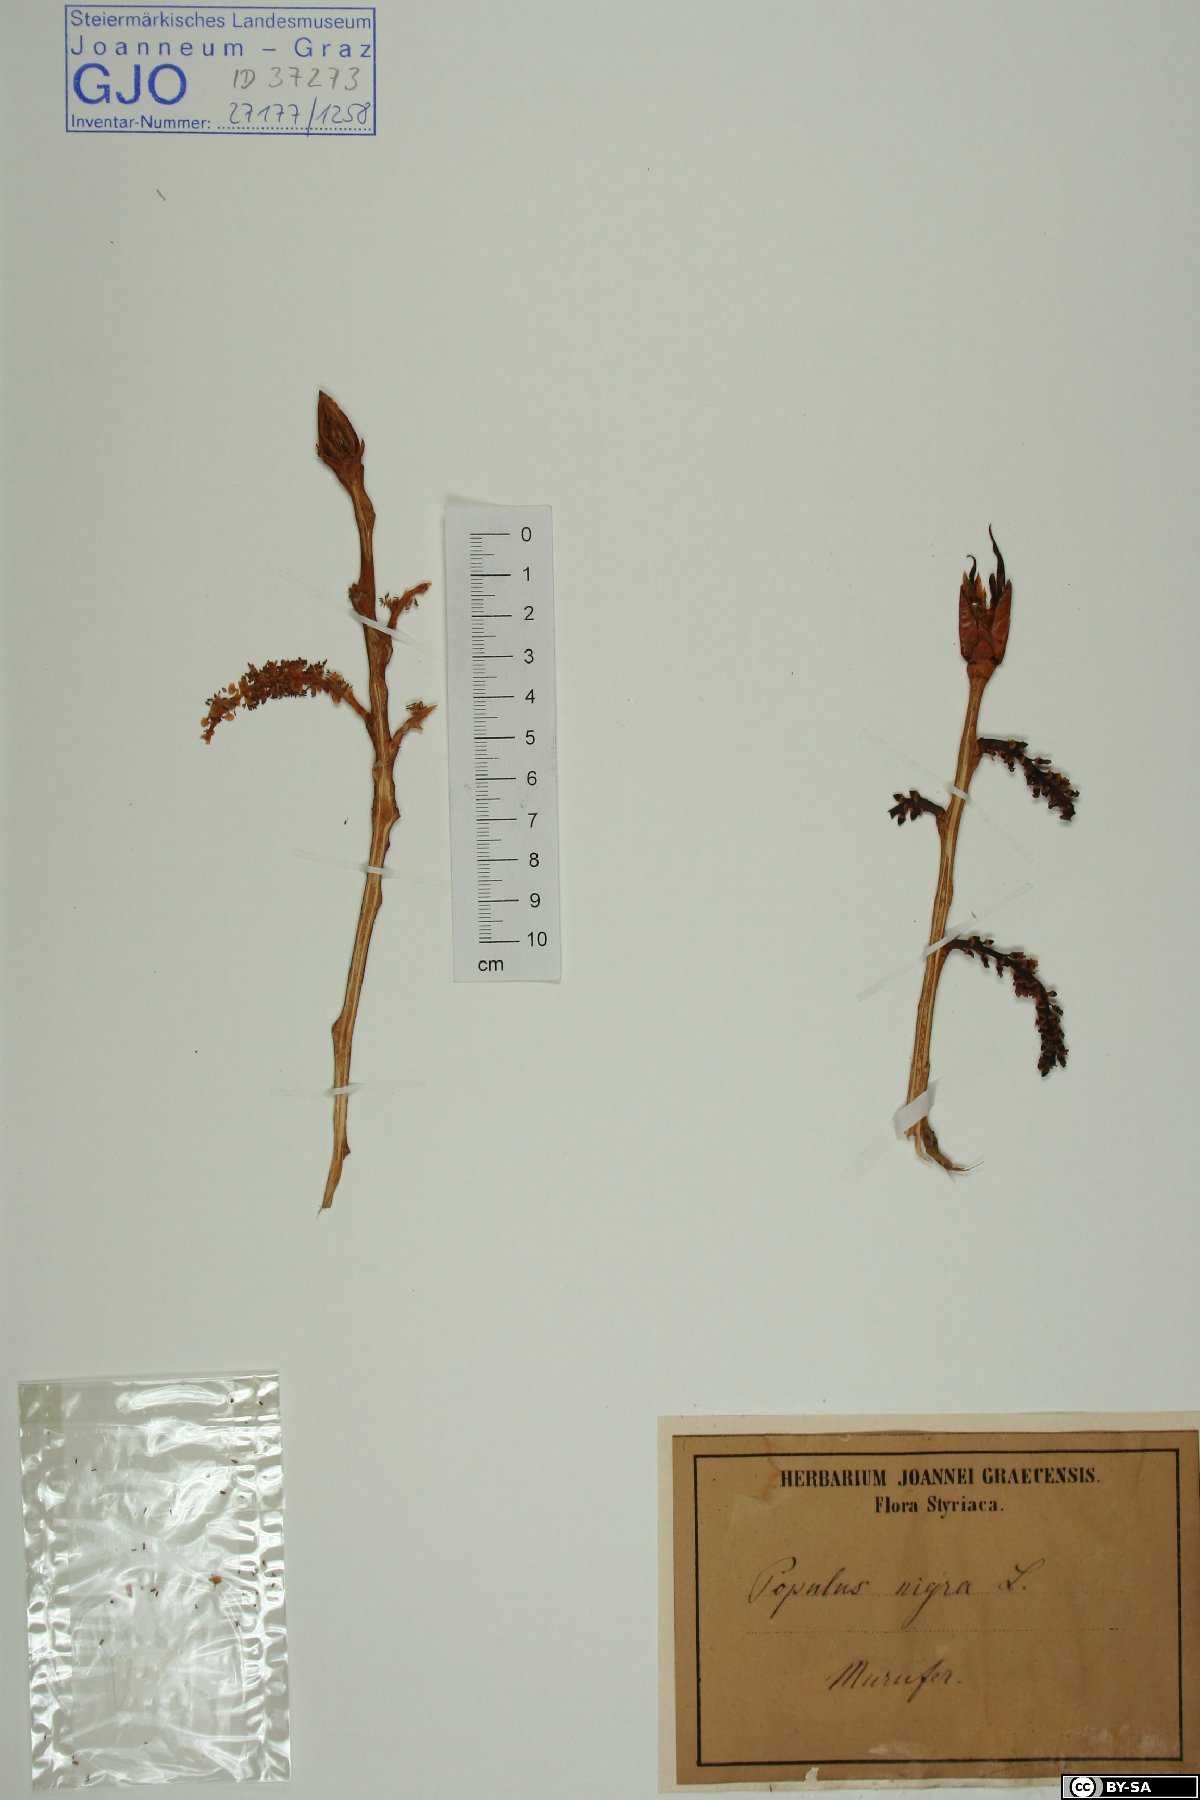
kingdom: Plantae
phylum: Tracheophyta
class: Magnoliopsida
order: Malpighiales
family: Salicaceae
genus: Populus
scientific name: Populus nigra
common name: Black poplar
